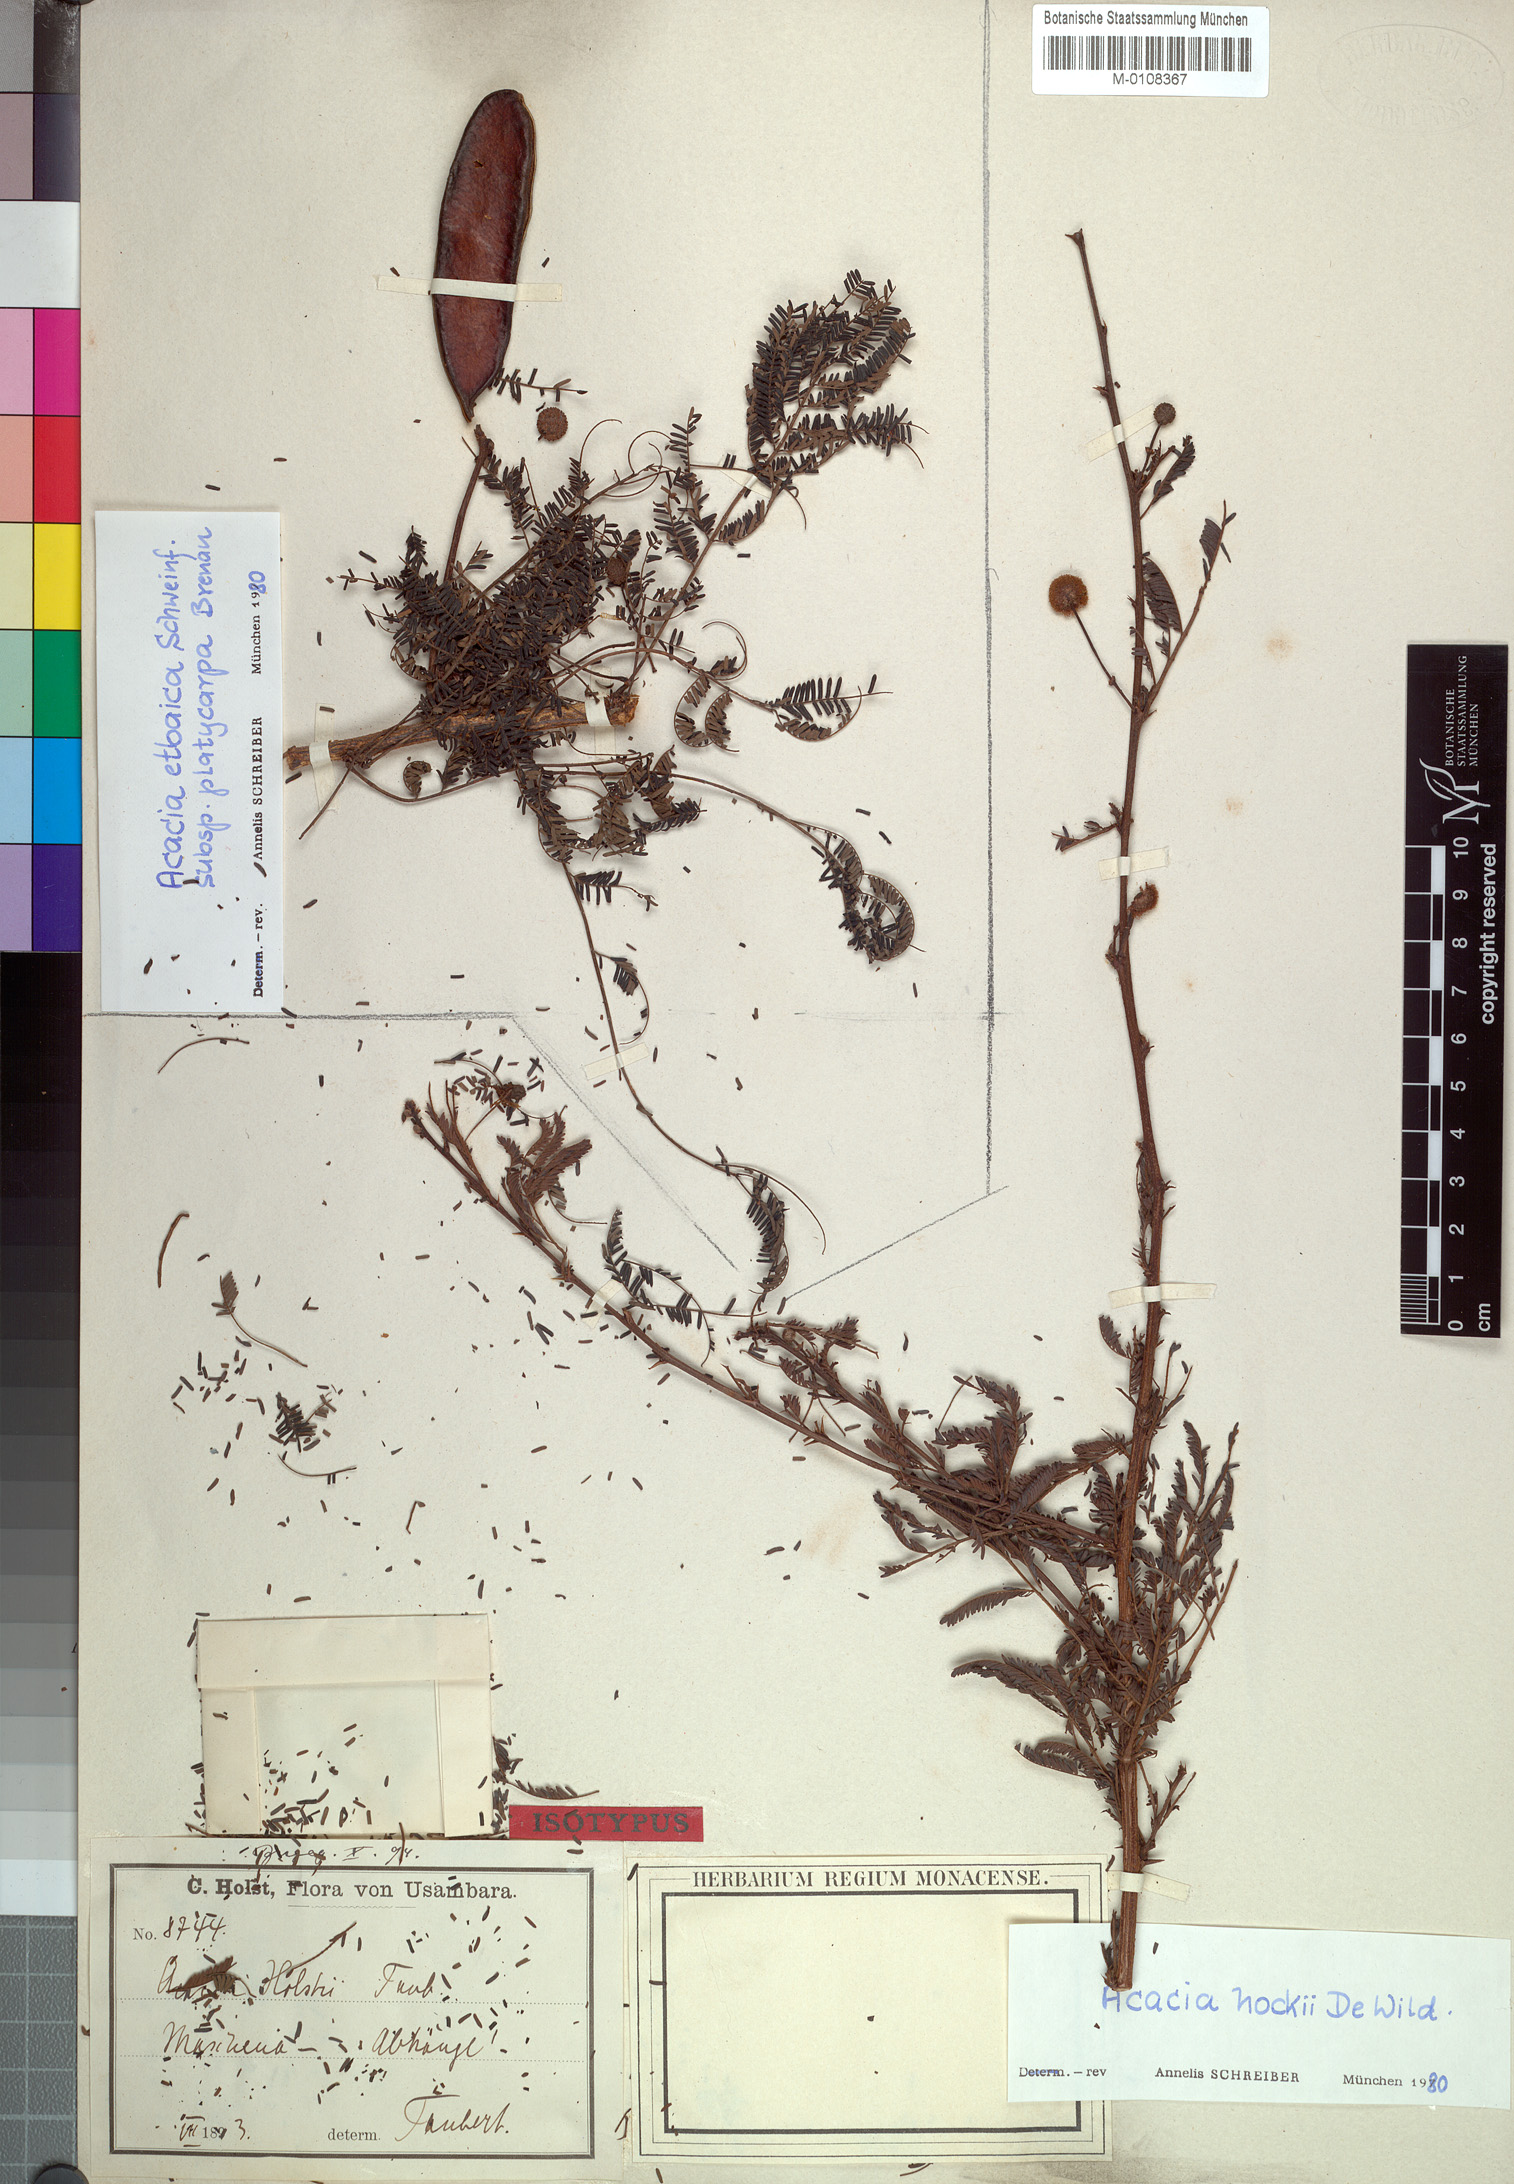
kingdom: Plantae
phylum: Tracheophyta
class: Magnoliopsida
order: Fabales
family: Fabaceae
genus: Vachellia
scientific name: Vachellia hockii
